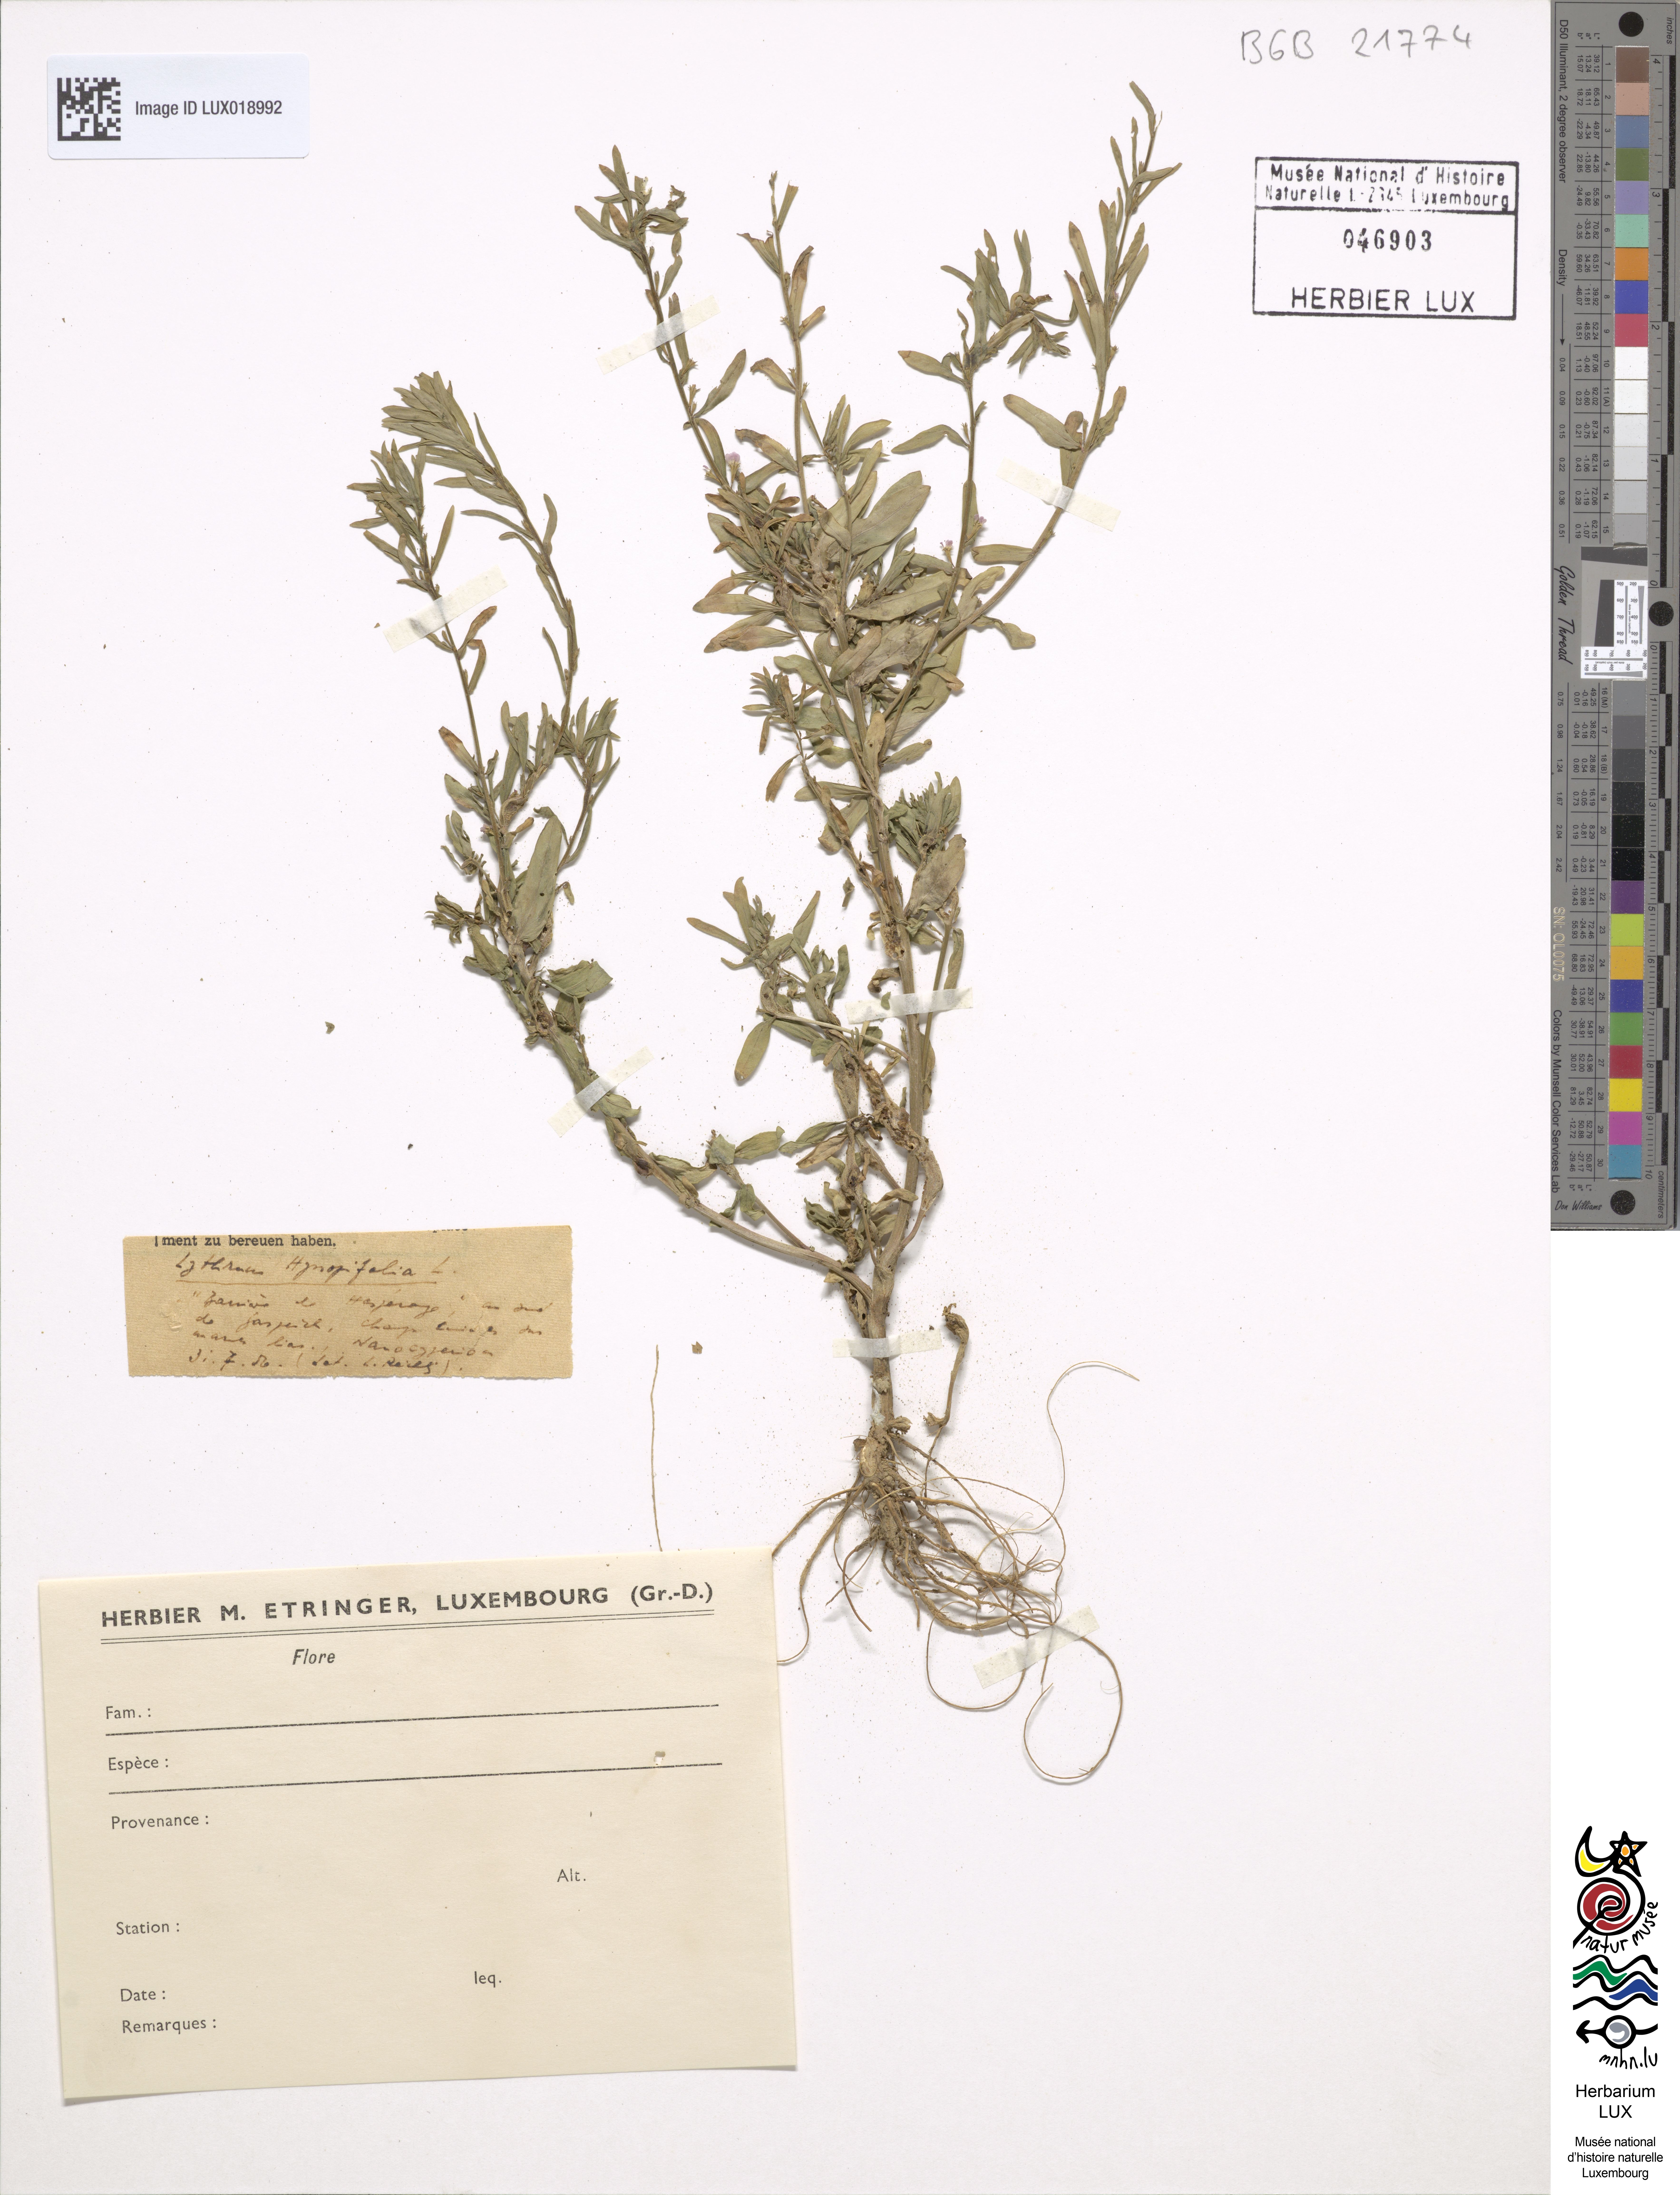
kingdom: Plantae
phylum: Tracheophyta
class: Magnoliopsida
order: Myrtales
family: Lythraceae
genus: Lythrum
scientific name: Lythrum hyssopifolia
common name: Grass-poly
